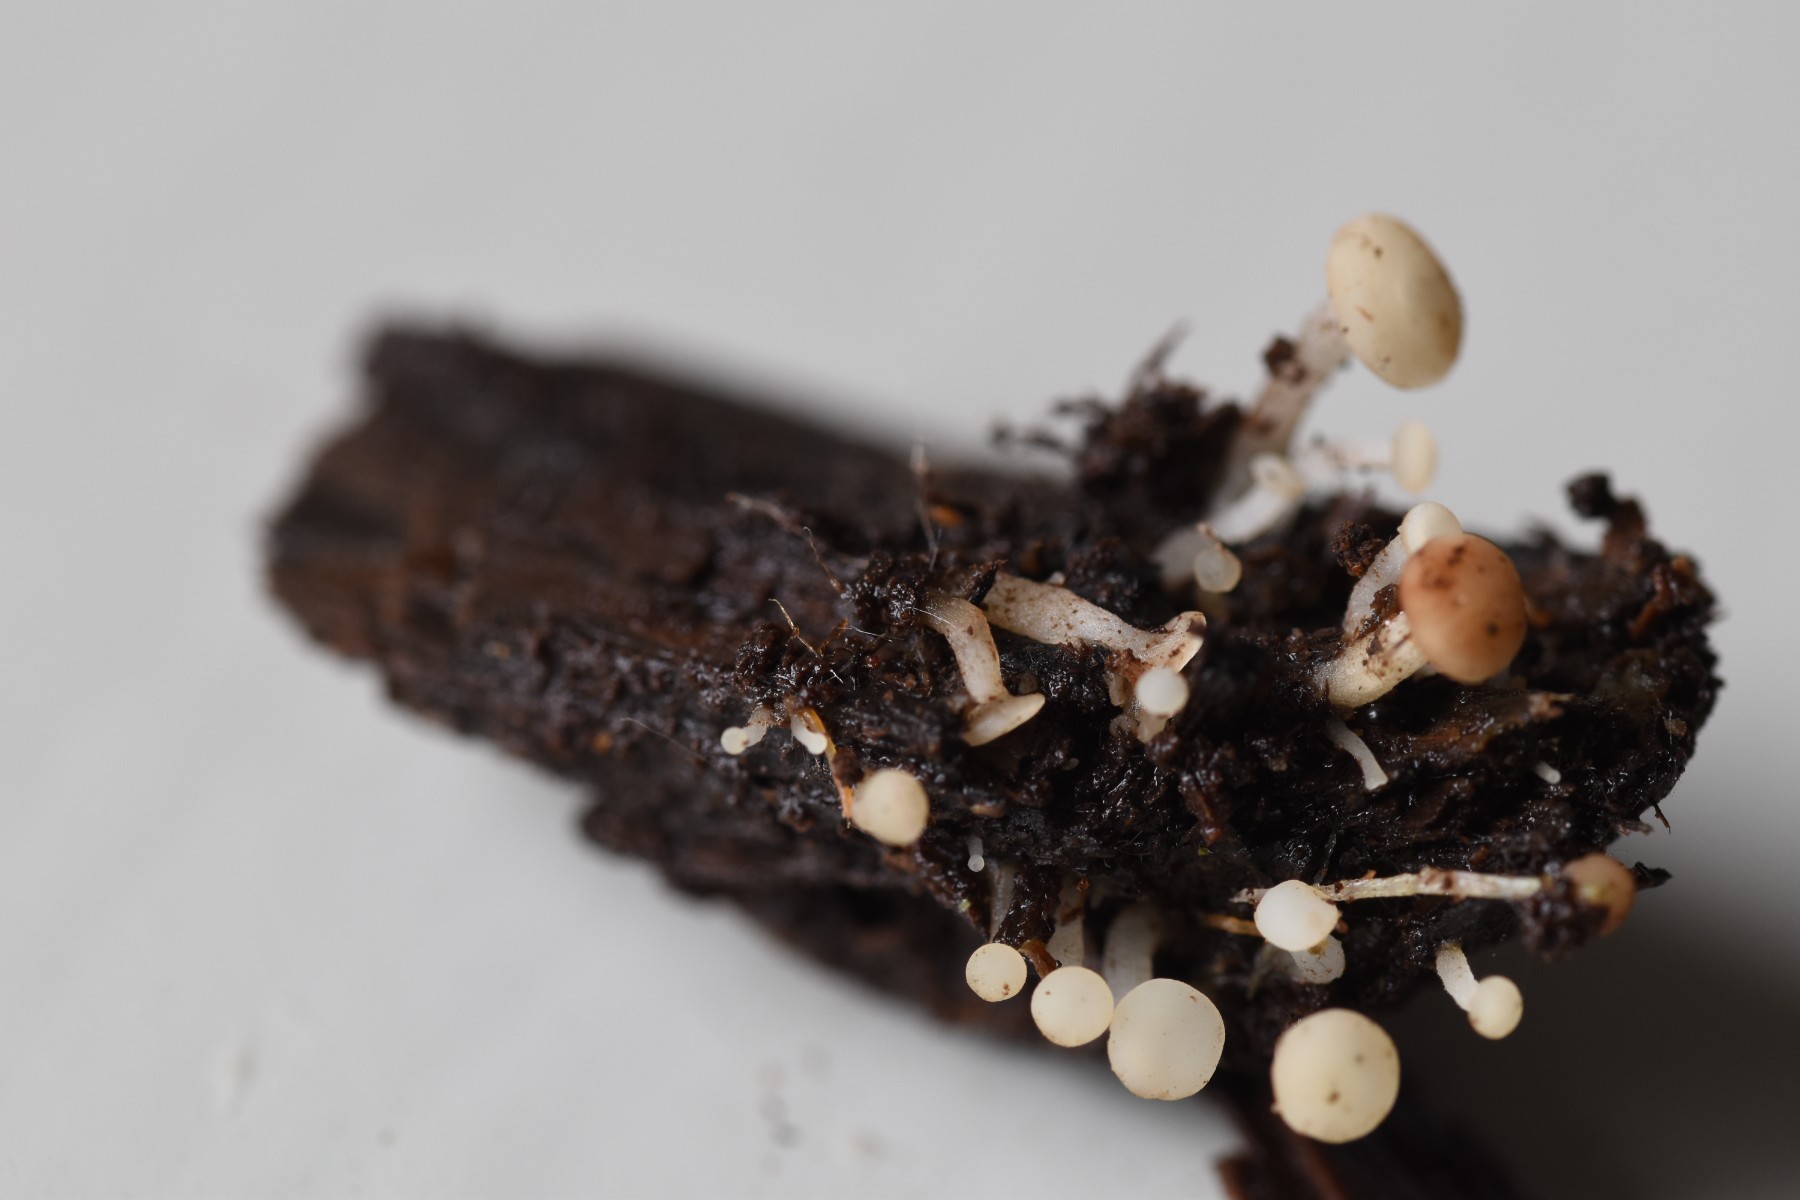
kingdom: Fungi
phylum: Ascomycota
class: Leotiomycetes
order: Helotiales
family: Tricladiaceae
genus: Cudoniella
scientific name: Cudoniella acicularis
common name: ege-dyndskive
